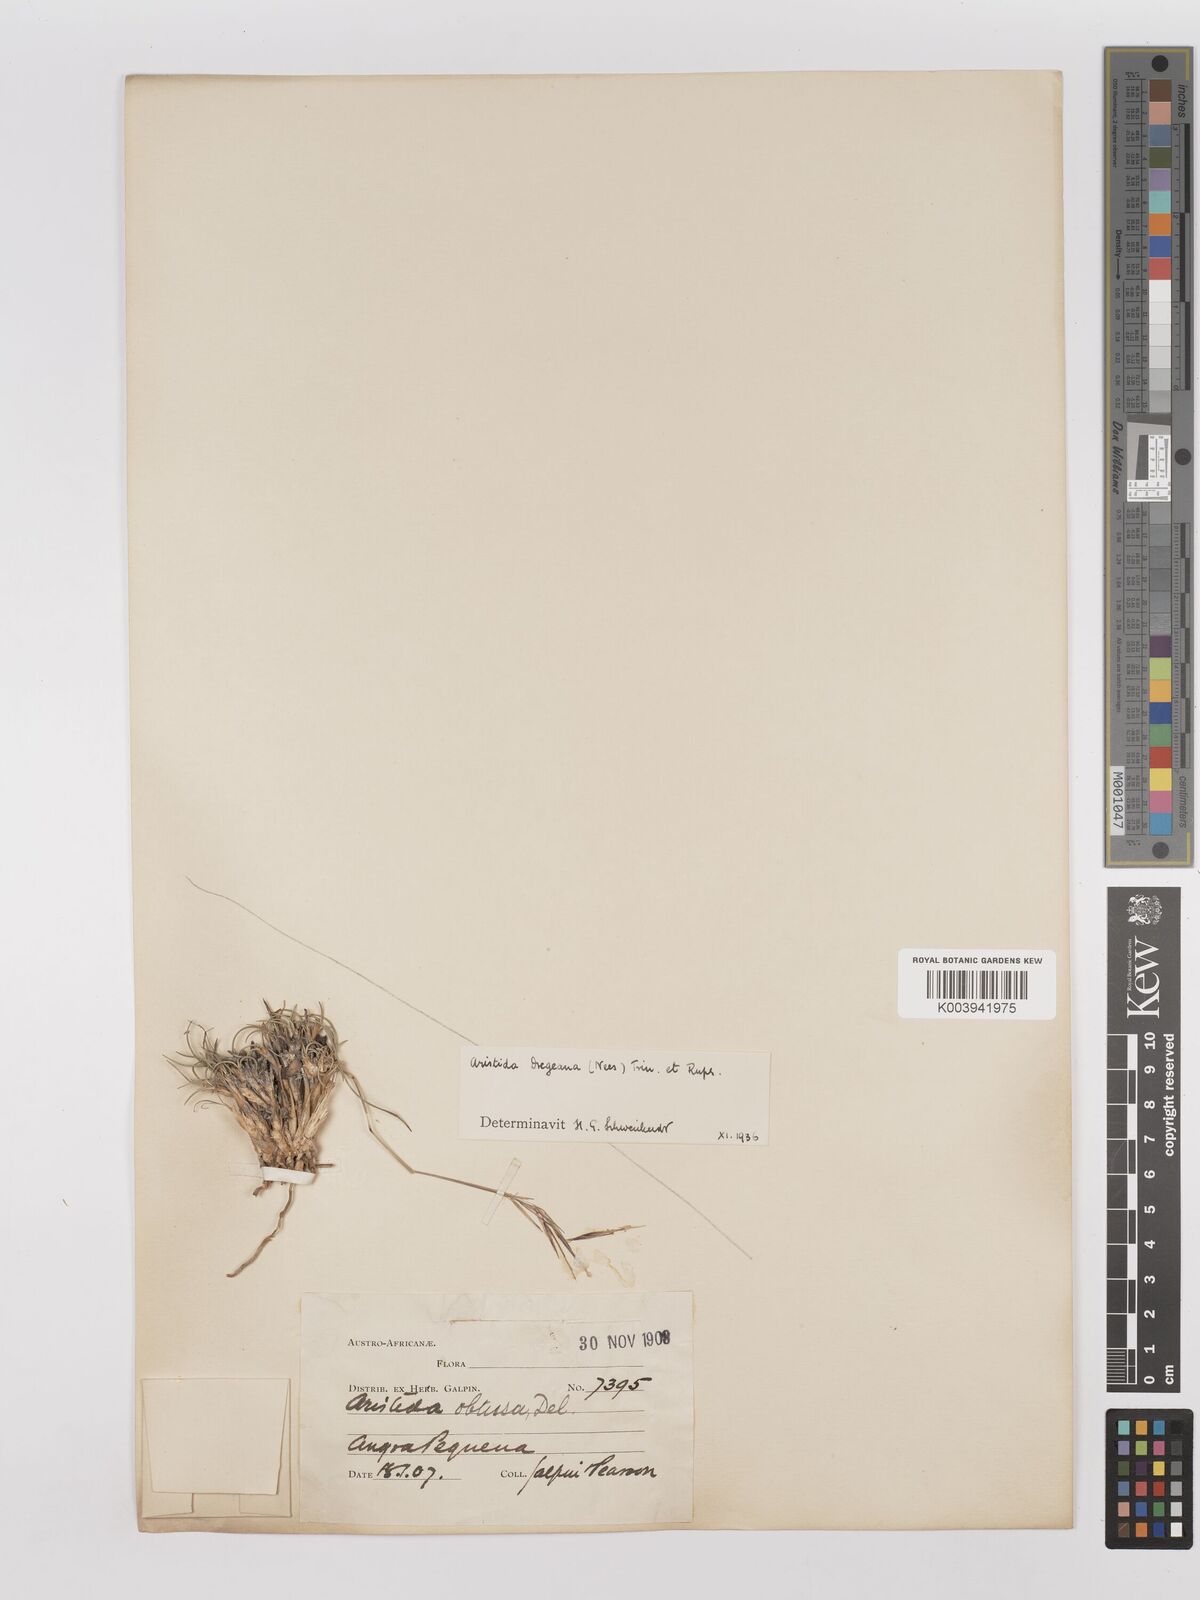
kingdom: Plantae
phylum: Tracheophyta
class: Liliopsida
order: Poales
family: Poaceae
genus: Stipagrostis
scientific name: Stipagrostis dregeana
